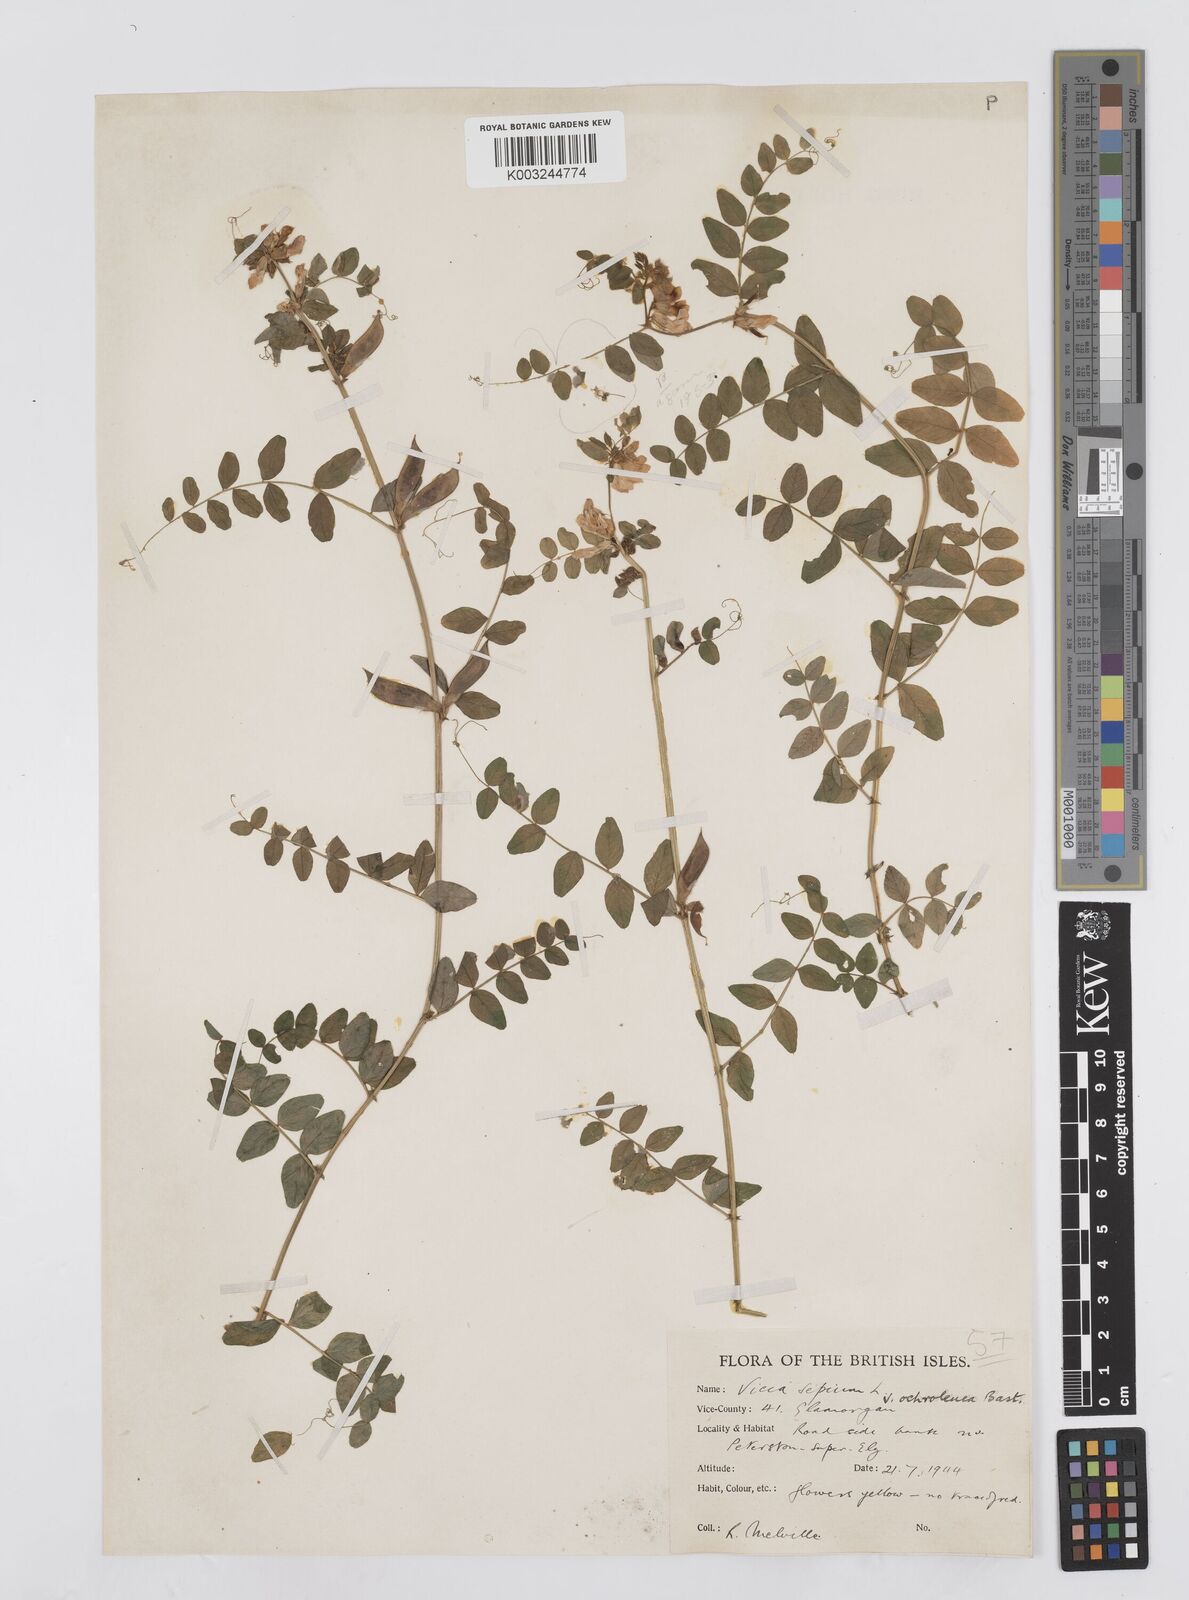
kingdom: Plantae
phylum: Tracheophyta
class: Magnoliopsida
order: Fabales
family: Fabaceae
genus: Vicia
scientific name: Vicia sepium
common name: Bush vetch
